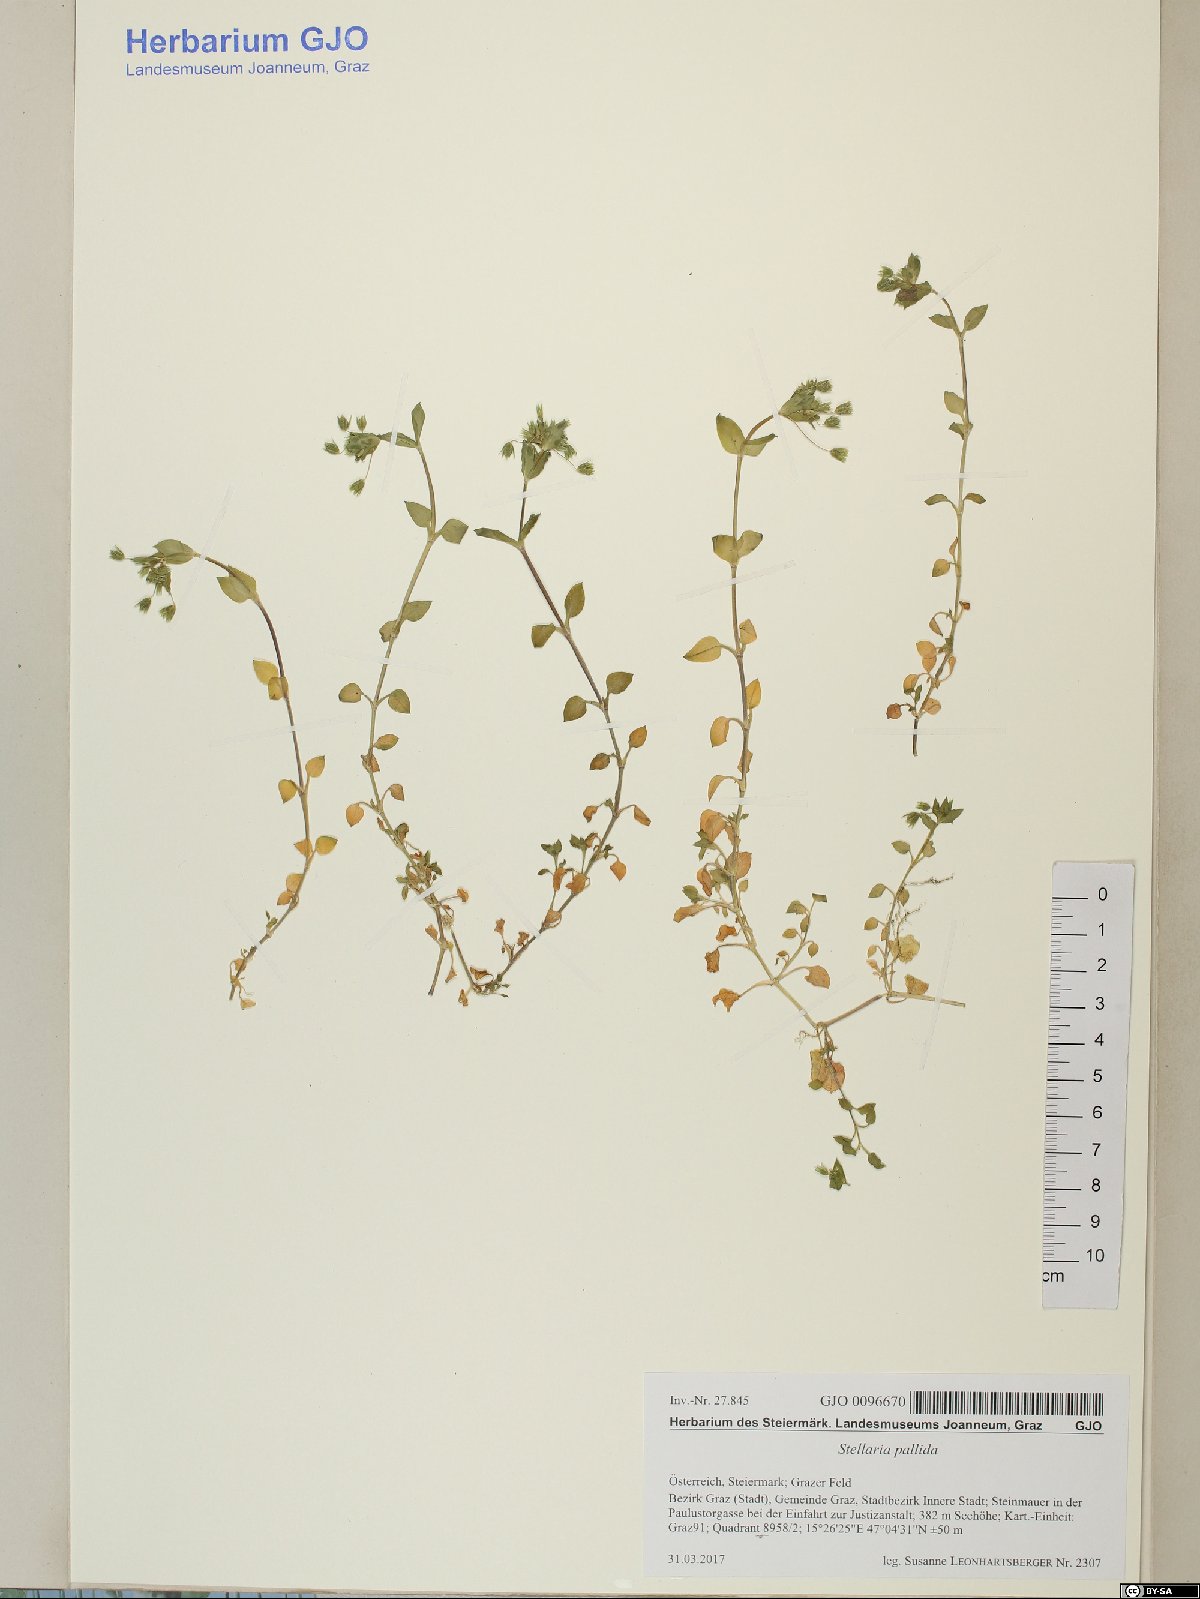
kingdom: Plantae
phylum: Tracheophyta
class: Magnoliopsida
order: Caryophyllales
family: Caryophyllaceae
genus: Stellaria
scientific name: Stellaria apetala
